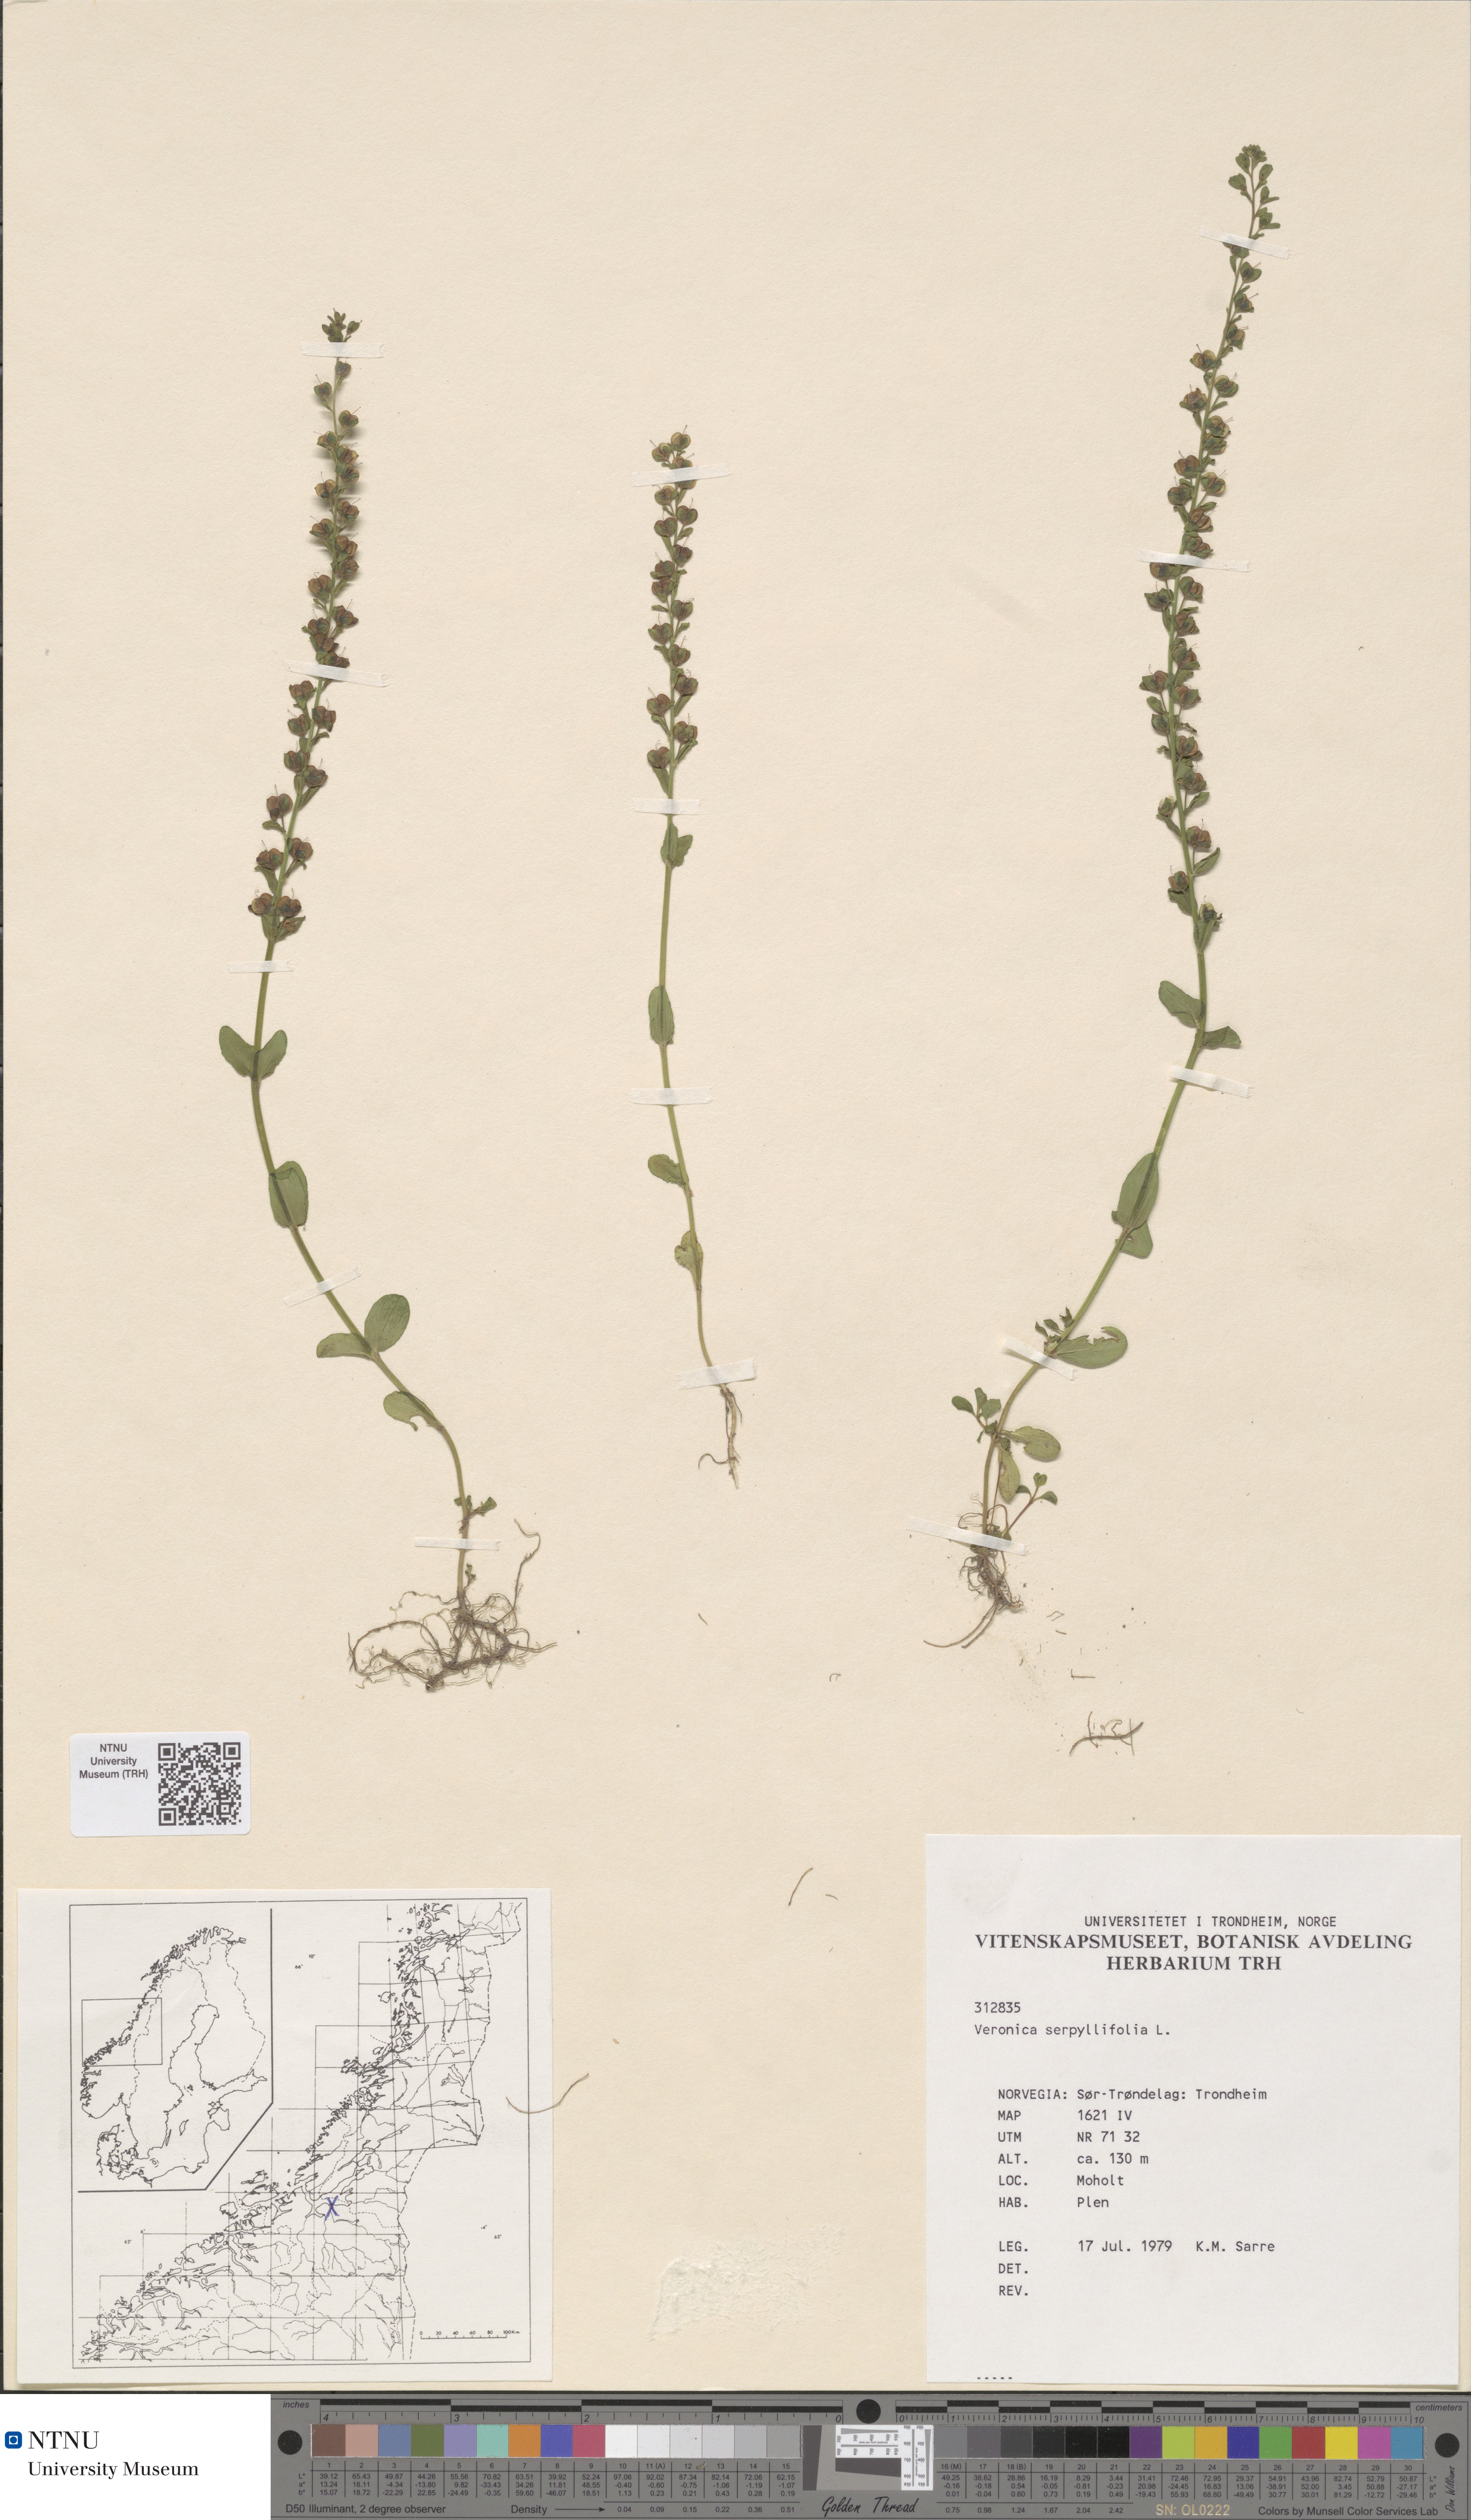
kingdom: Plantae
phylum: Tracheophyta
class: Magnoliopsida
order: Lamiales
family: Plantaginaceae
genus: Veronica
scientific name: Veronica serpyllifolia
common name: Thyme-leaved speedwell
